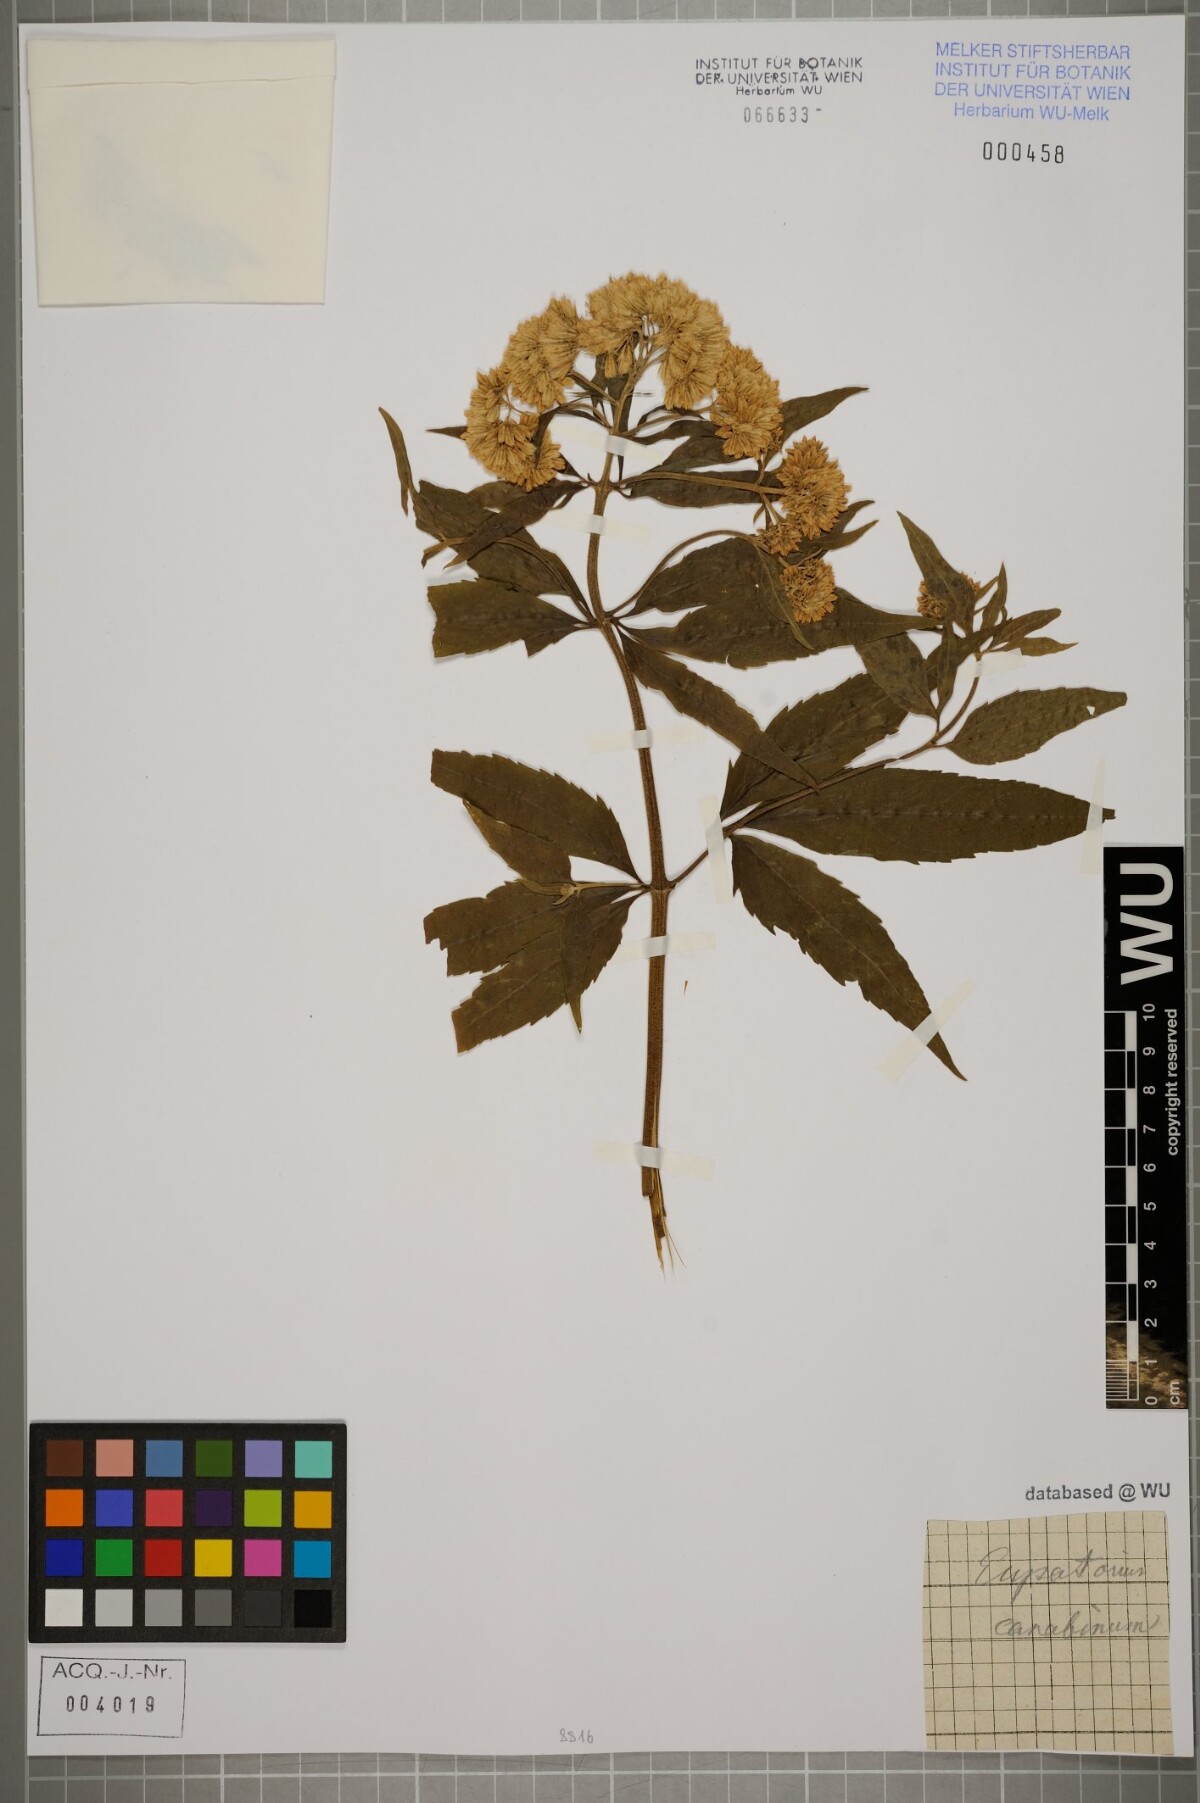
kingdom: Plantae
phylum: Tracheophyta
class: Magnoliopsida
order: Asterales
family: Asteraceae
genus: Eupatorium
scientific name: Eupatorium cannabinum
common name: Hemp-agrimony
